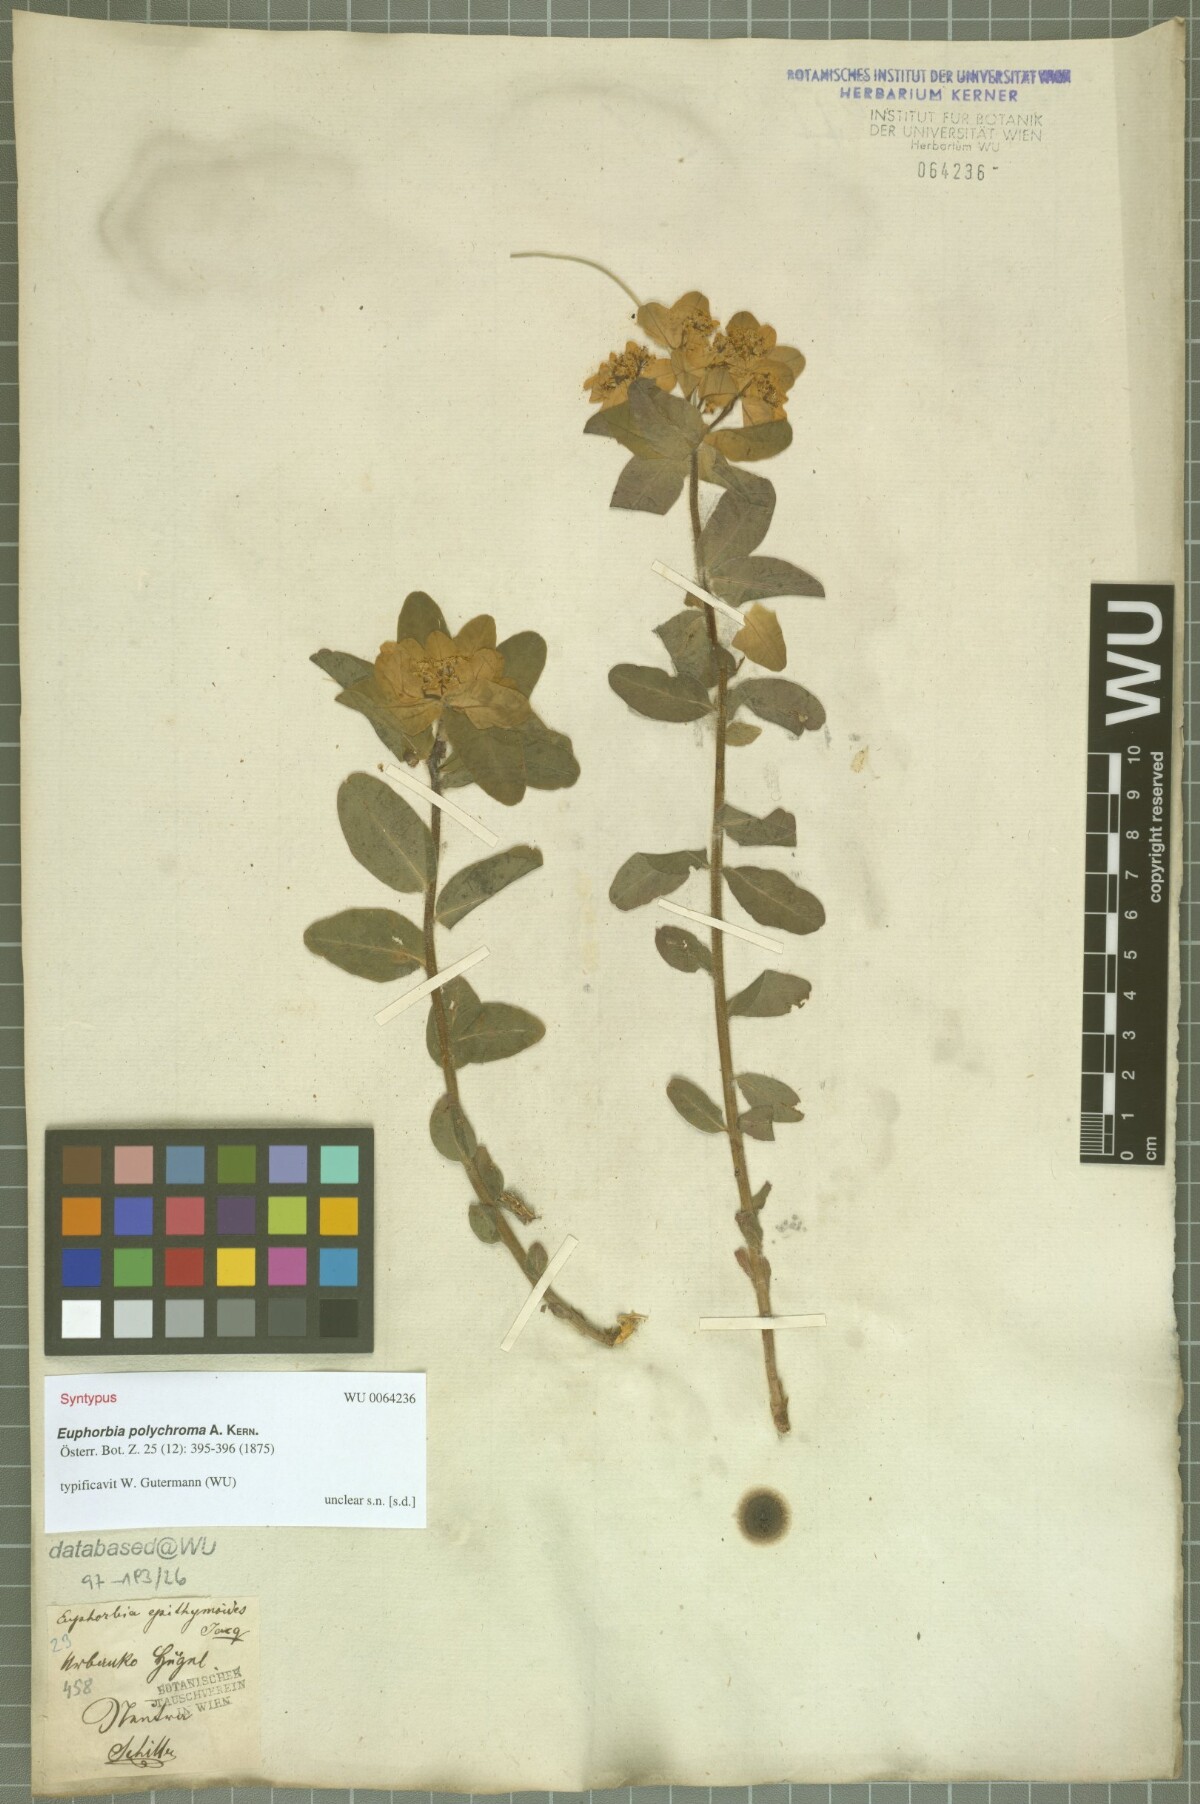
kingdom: Plantae
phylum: Tracheophyta
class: Magnoliopsida
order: Malpighiales
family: Euphorbiaceae
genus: Euphorbia
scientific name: Euphorbia epithymoides
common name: Cushion spurge
